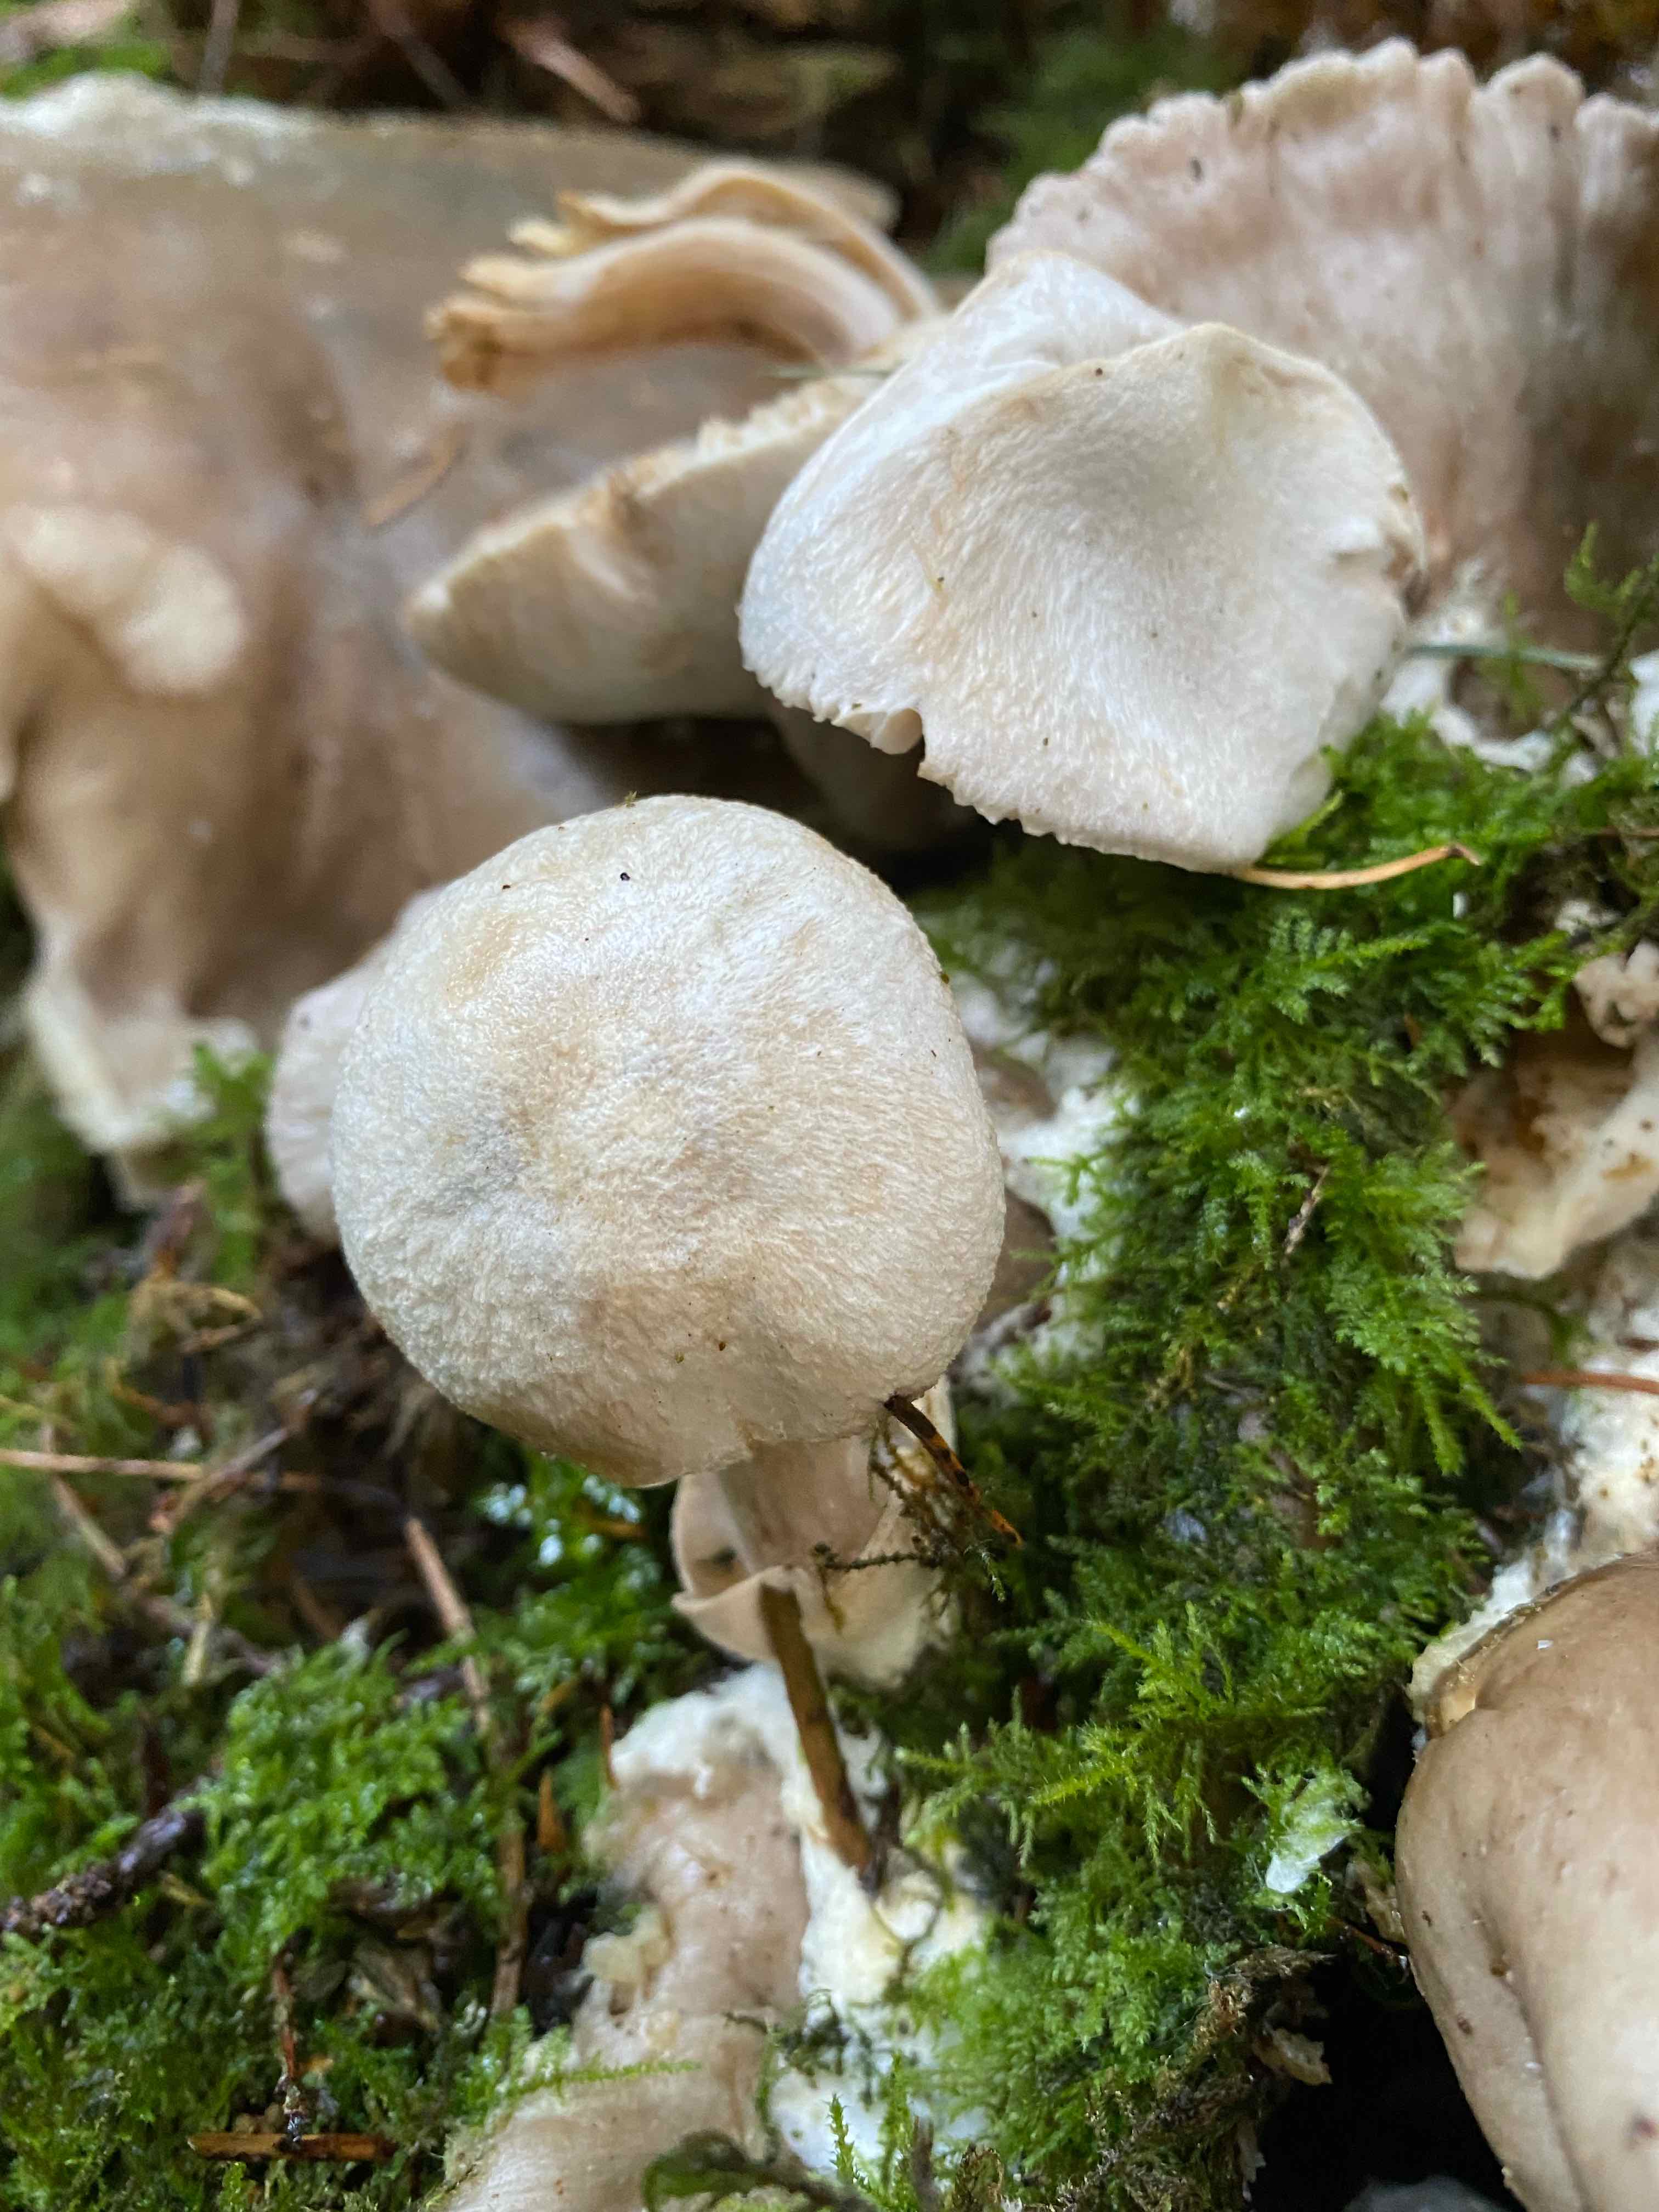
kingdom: Fungi
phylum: Basidiomycota
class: Agaricomycetes
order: Agaricales
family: Pluteaceae
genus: Volvariella
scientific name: Volvariella surrecta
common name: snyltende posesvamp
